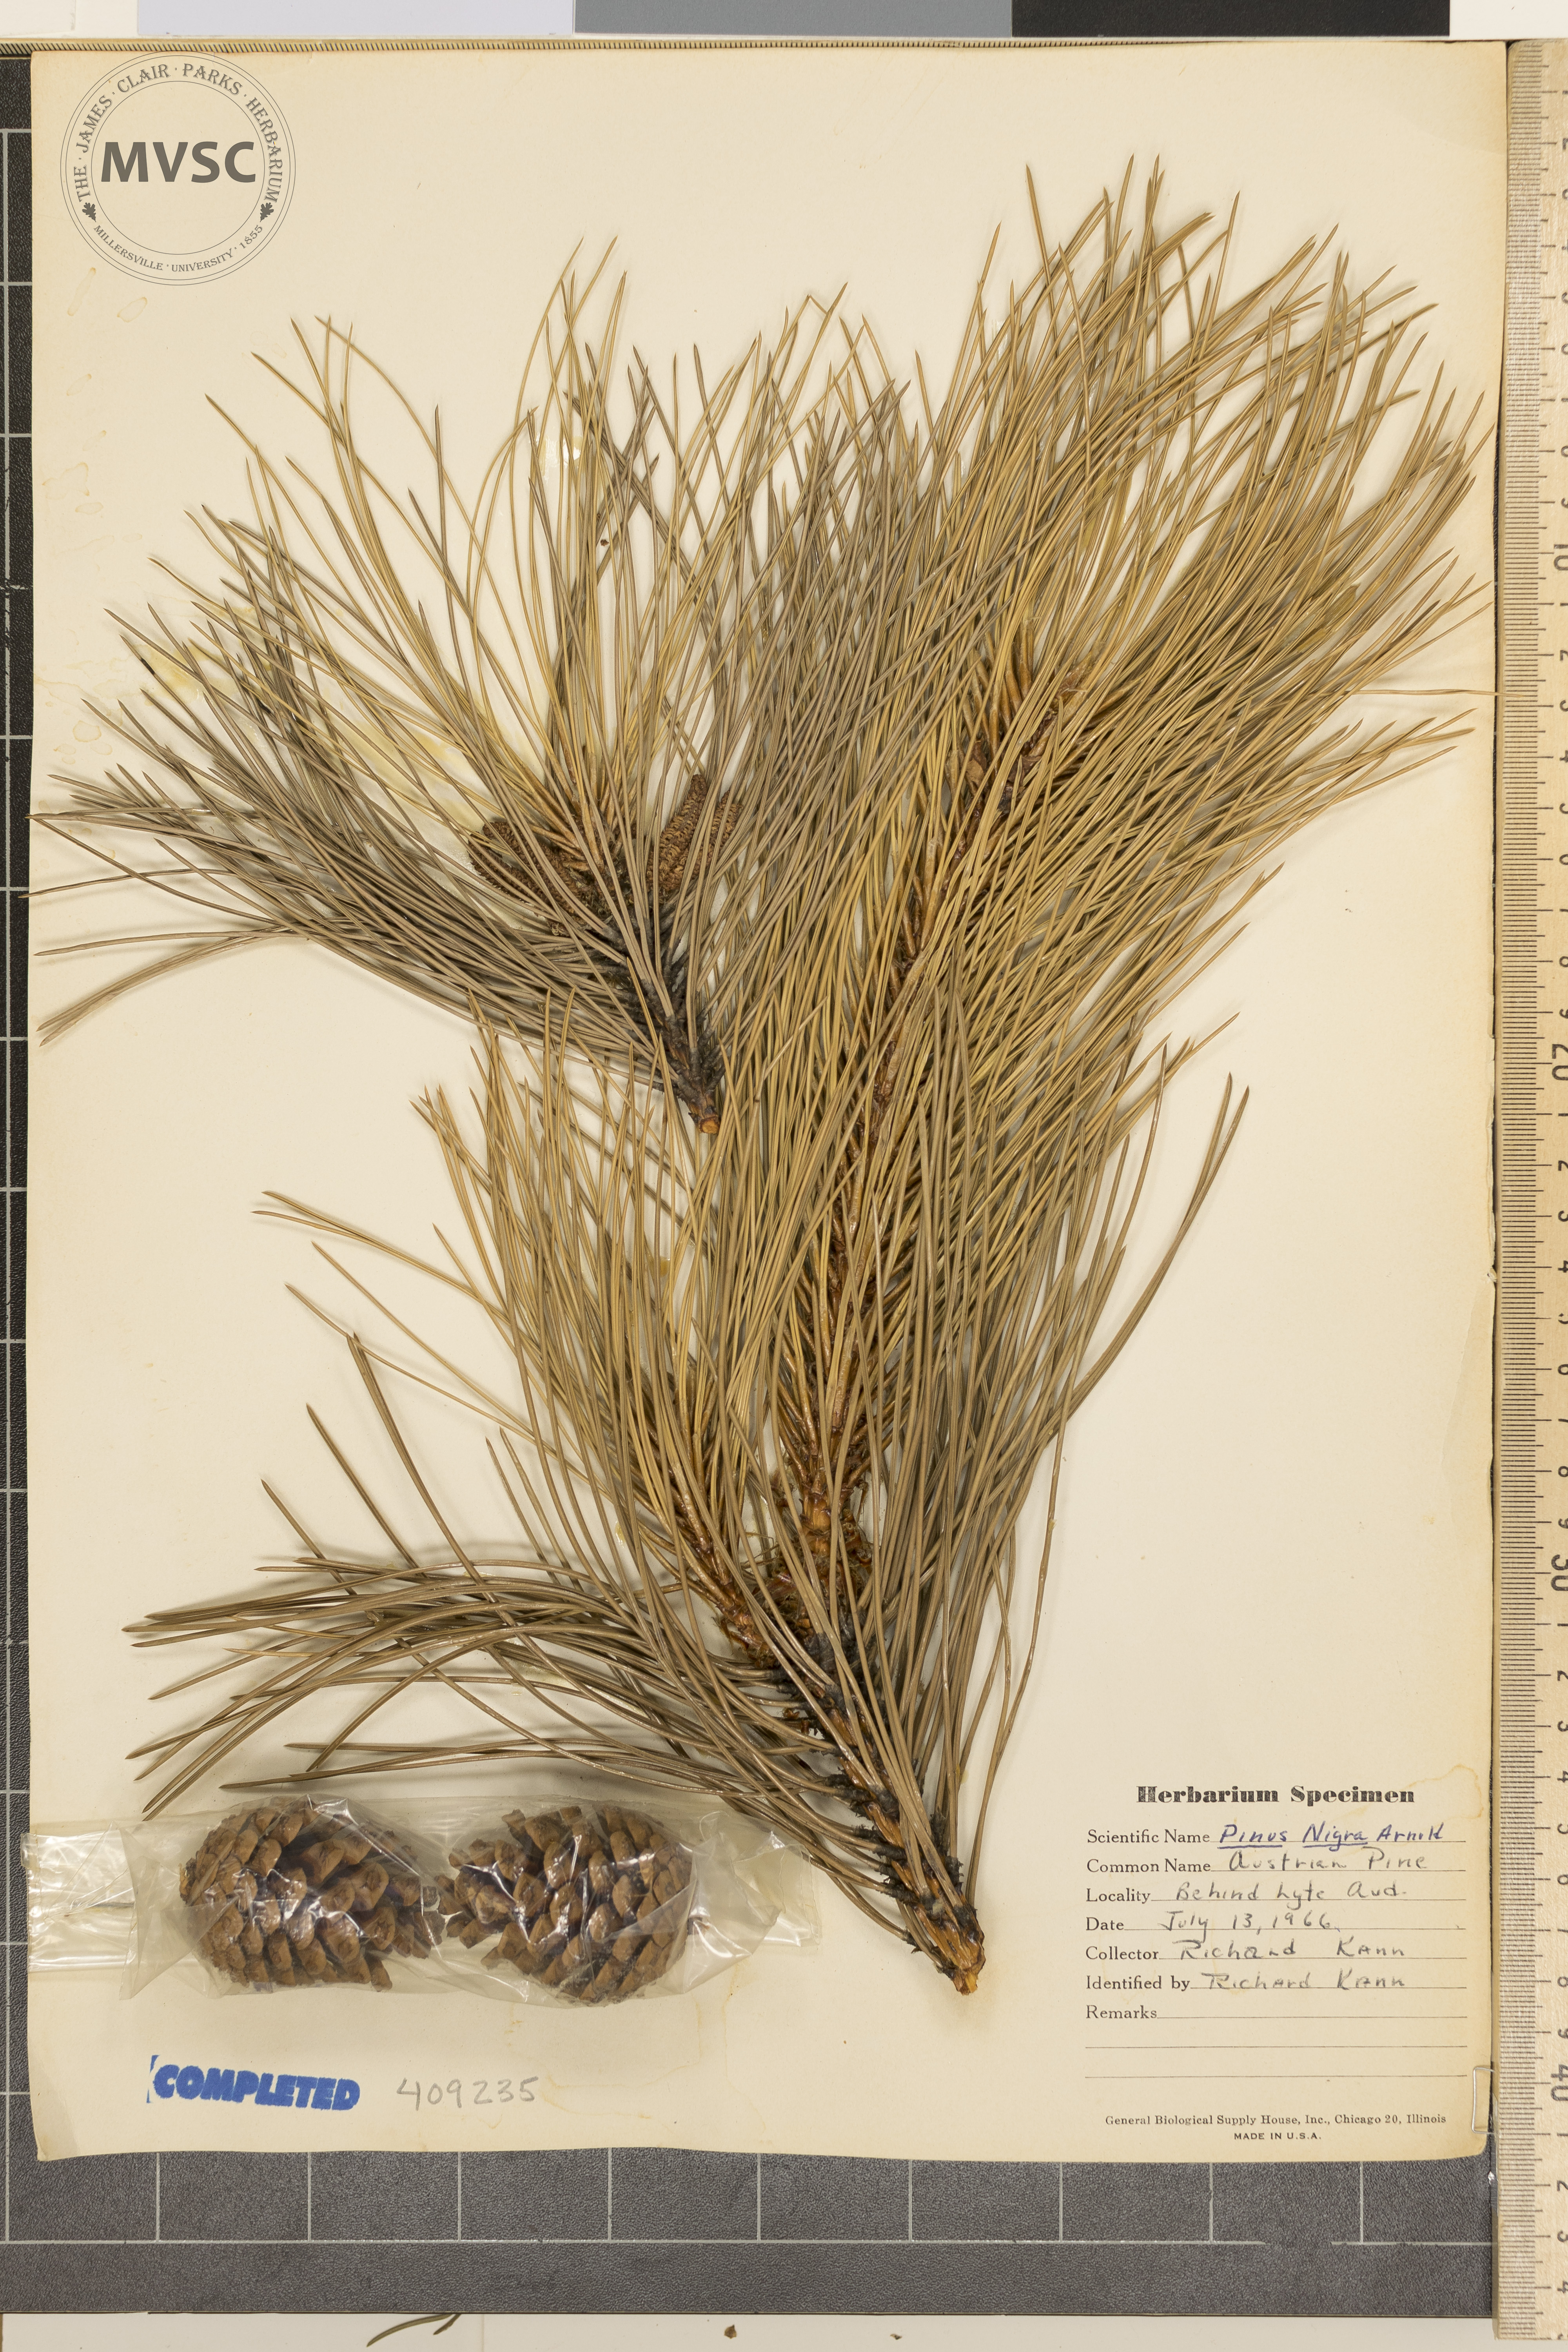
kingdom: Plantae
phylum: Tracheophyta
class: Pinopsida
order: Pinales
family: Pinaceae
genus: Pinus
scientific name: Pinus nigra
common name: Austrian pine
